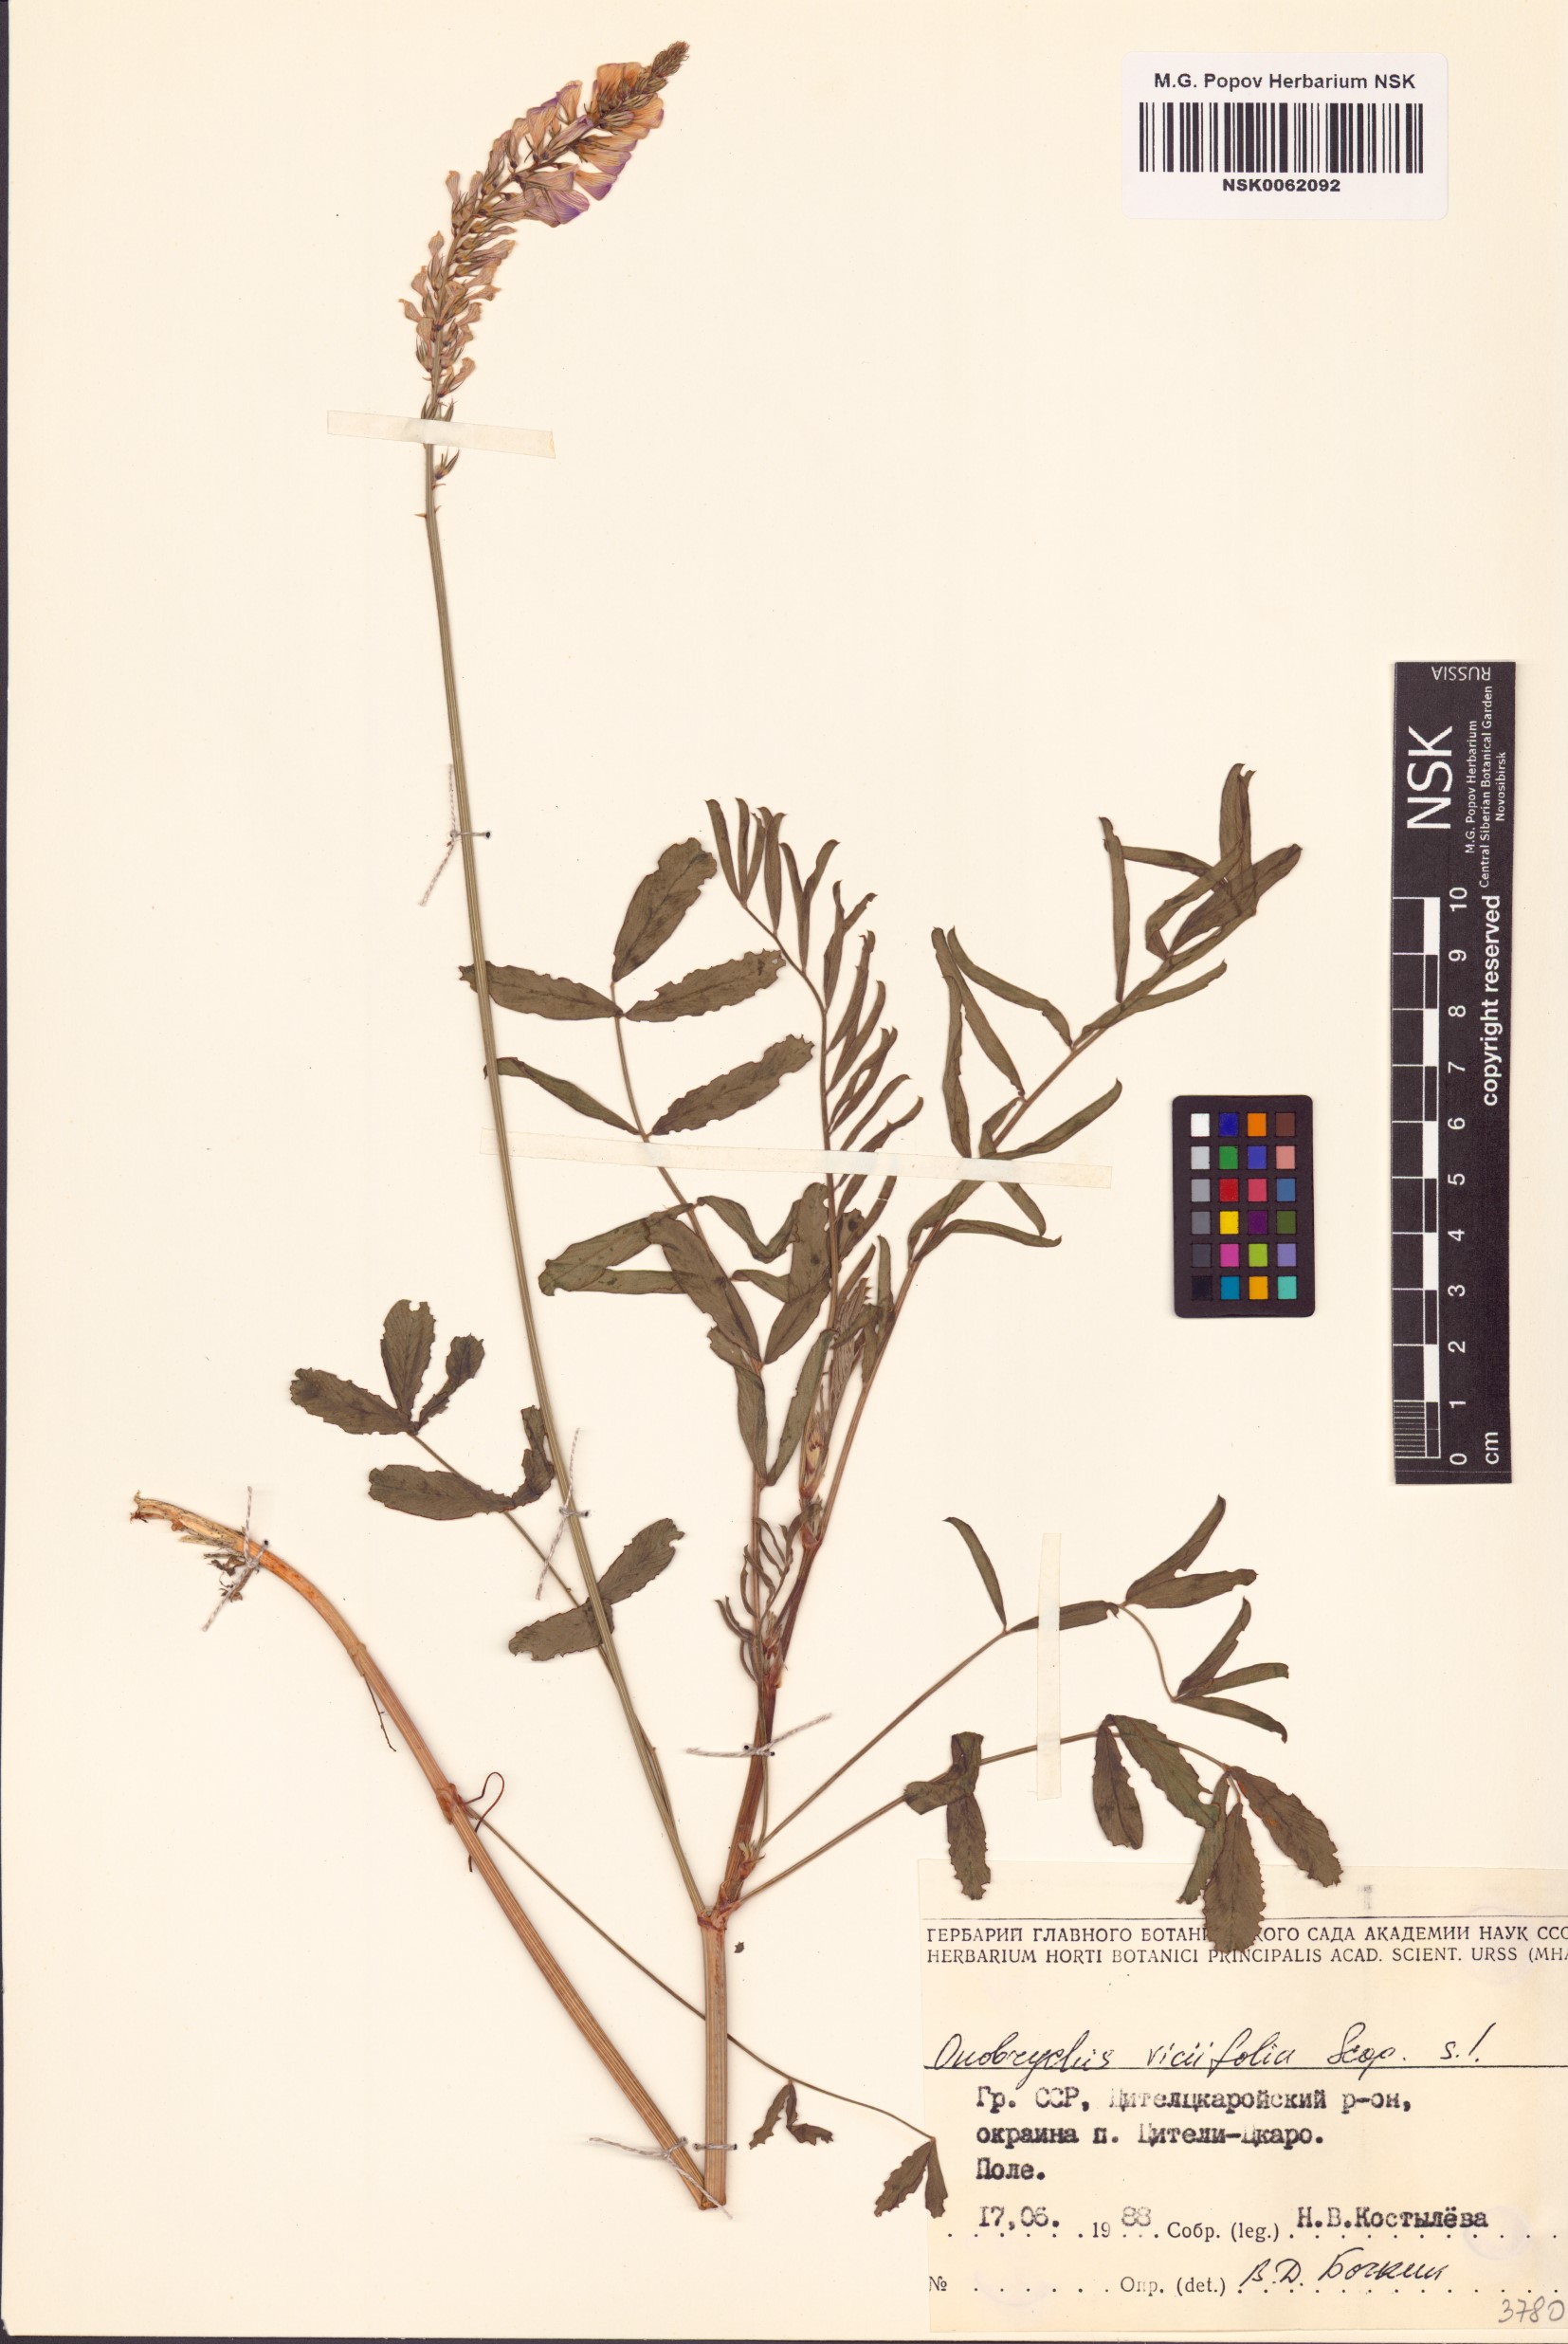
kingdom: Plantae
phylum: Tracheophyta
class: Magnoliopsida
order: Fabales
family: Fabaceae
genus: Onobrychis
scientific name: Onobrychis viciifolia
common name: Sainfoin
